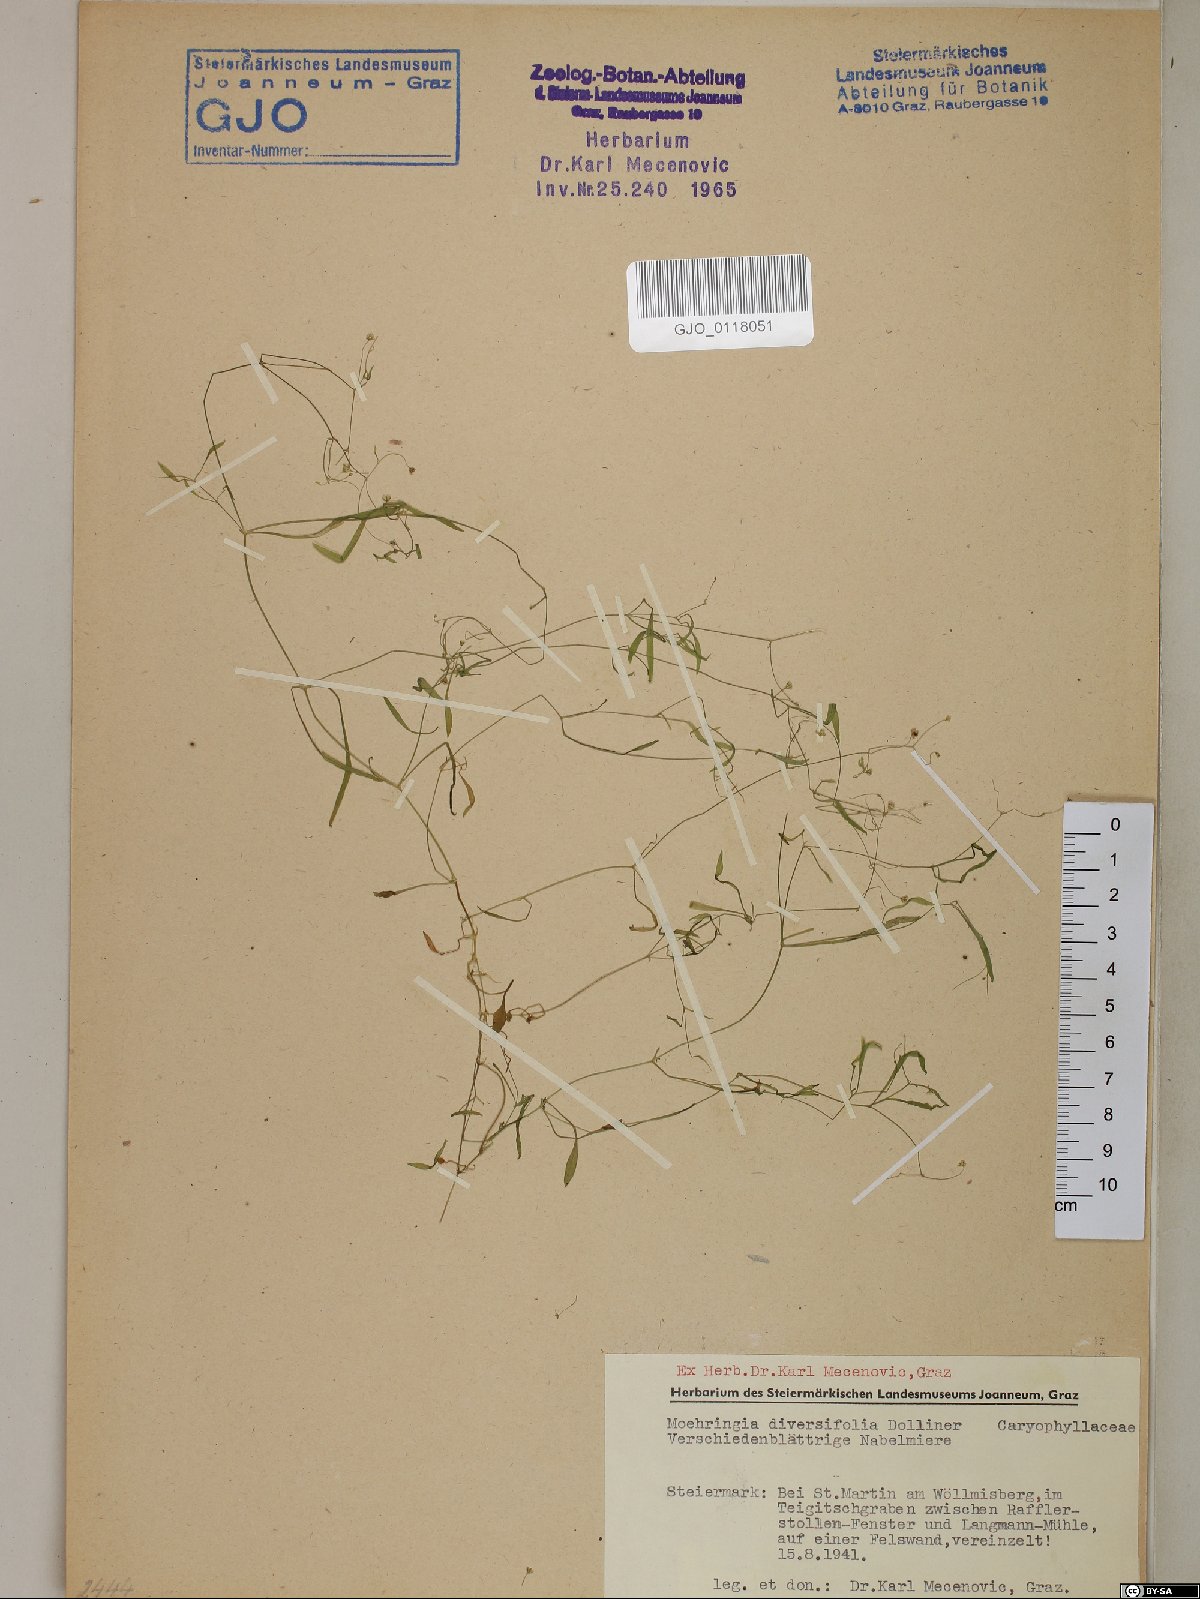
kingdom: Plantae
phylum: Tracheophyta
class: Magnoliopsida
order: Caryophyllales
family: Caryophyllaceae
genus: Moehringia
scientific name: Moehringia diversifolia
